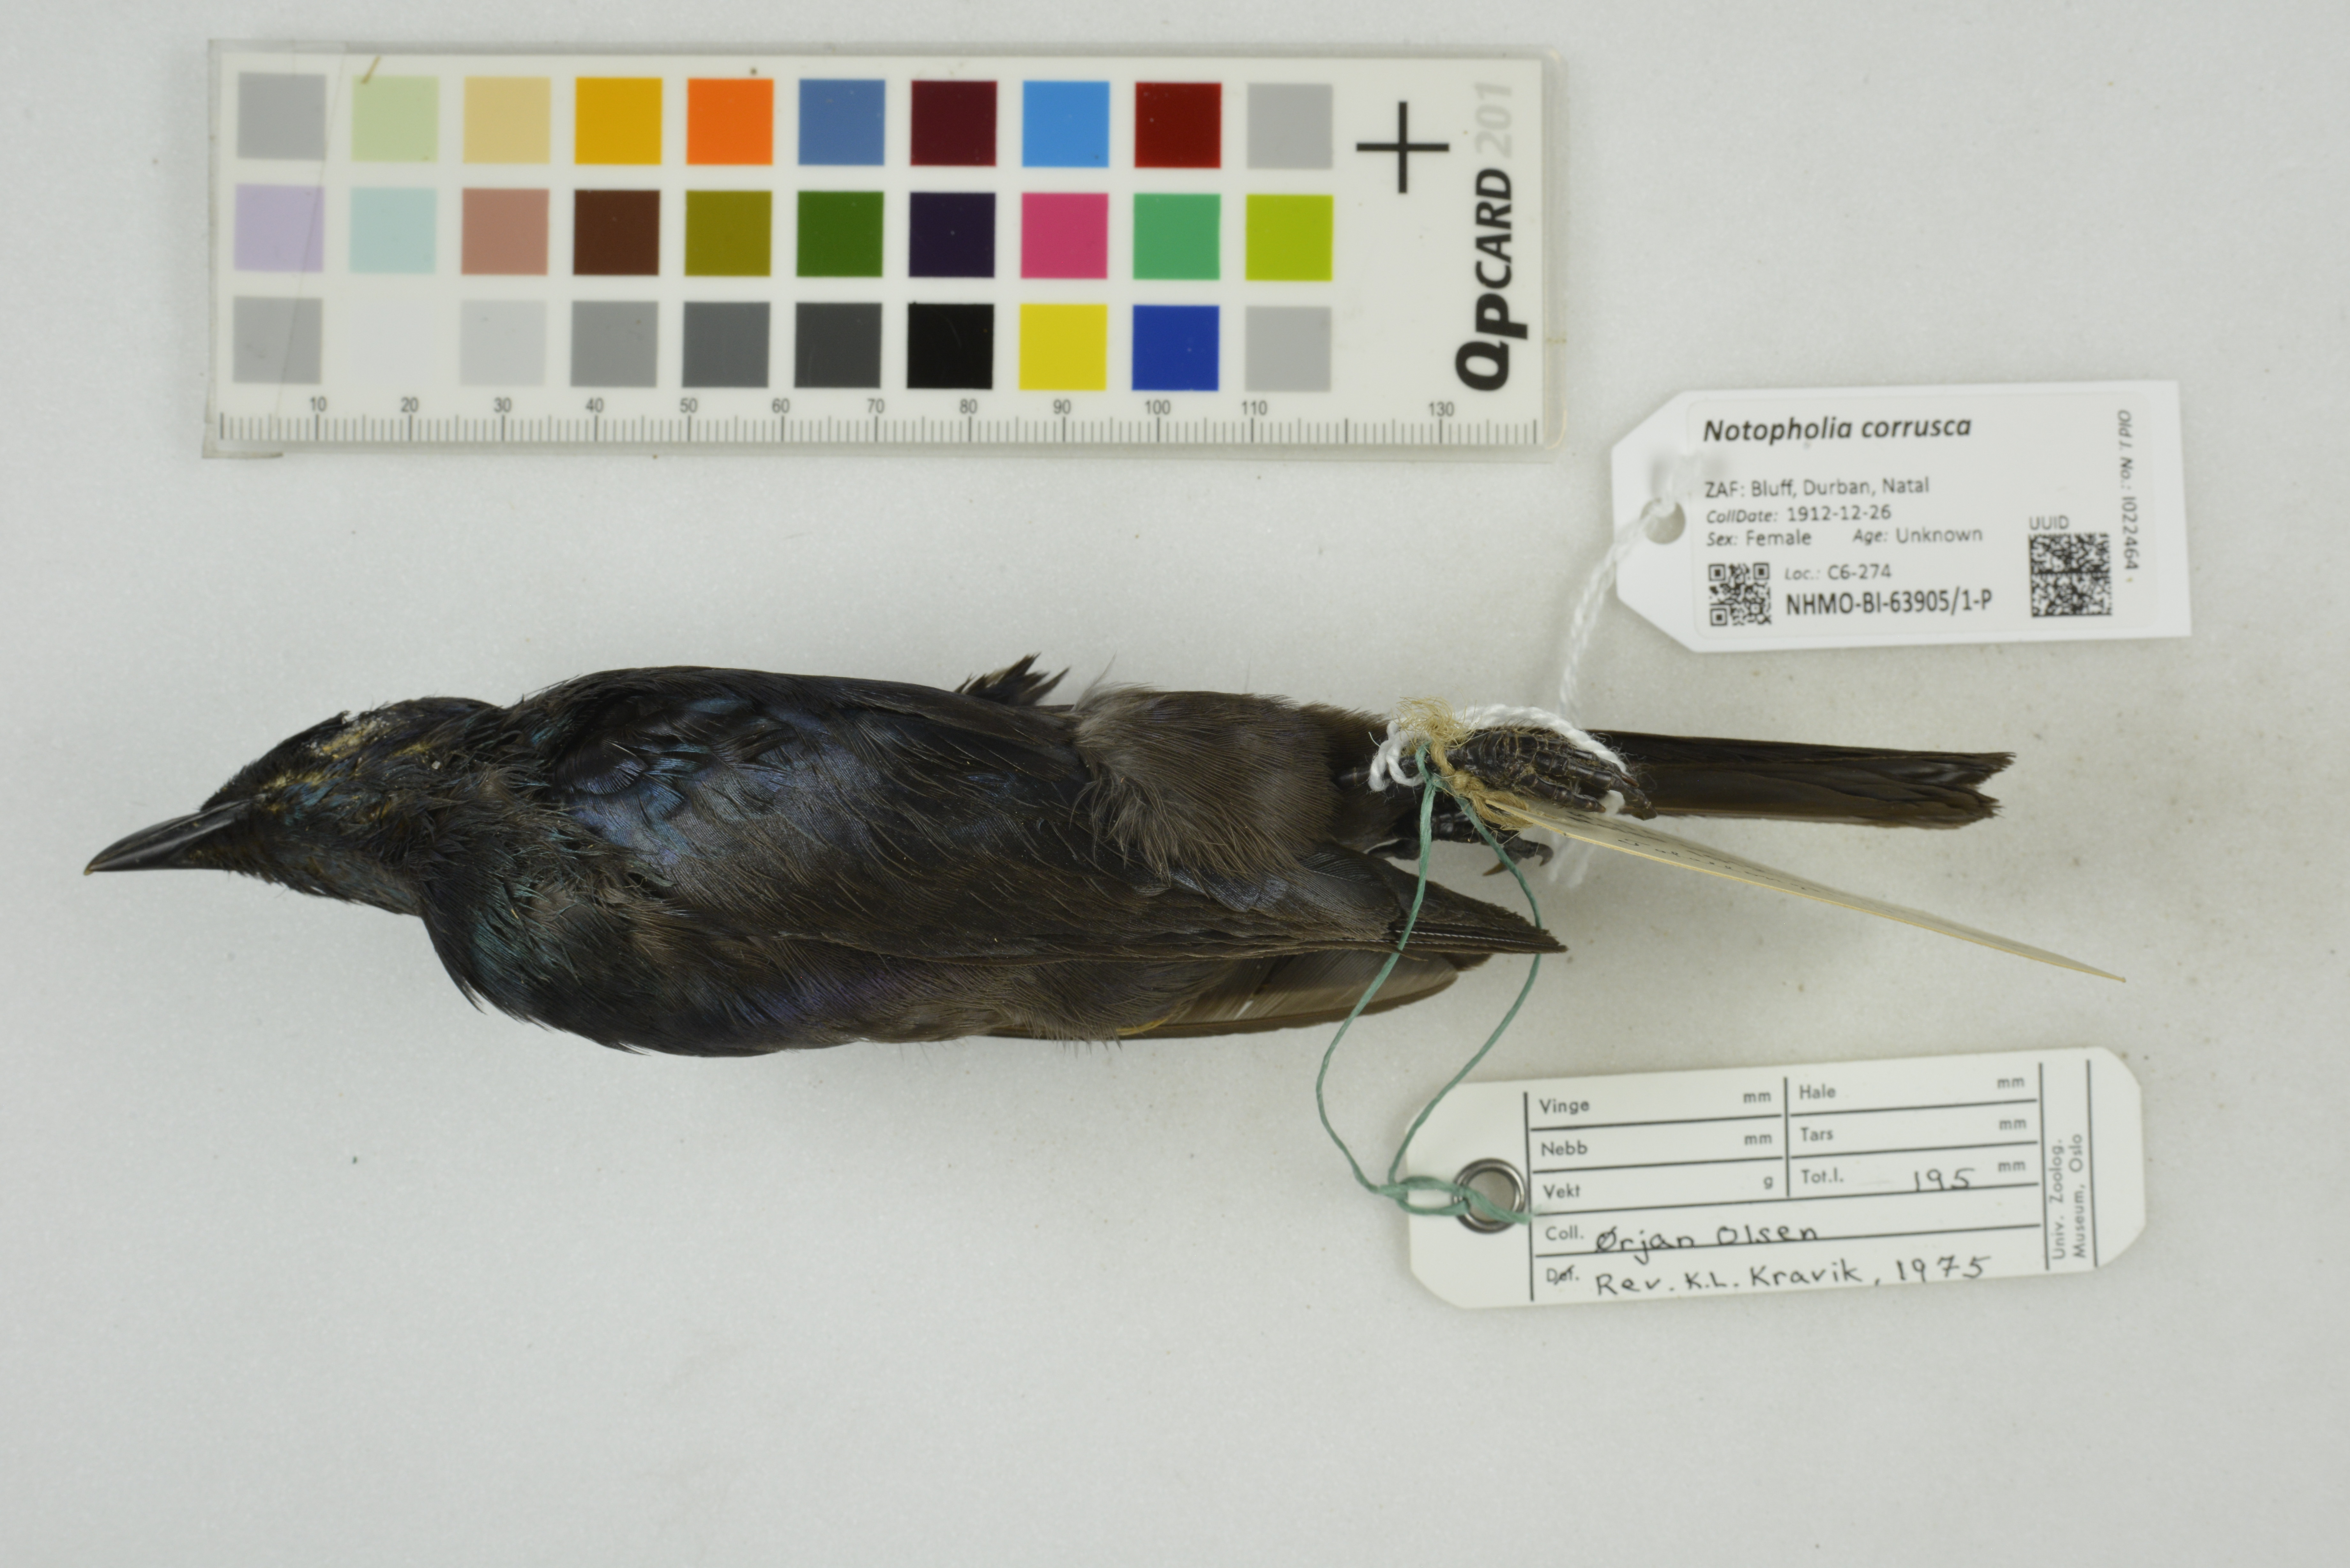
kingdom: Animalia
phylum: Chordata
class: Aves
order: Passeriformes
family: Sturnidae
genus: Notopholia
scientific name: Notopholia corrusca
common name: Black-bellied starling
